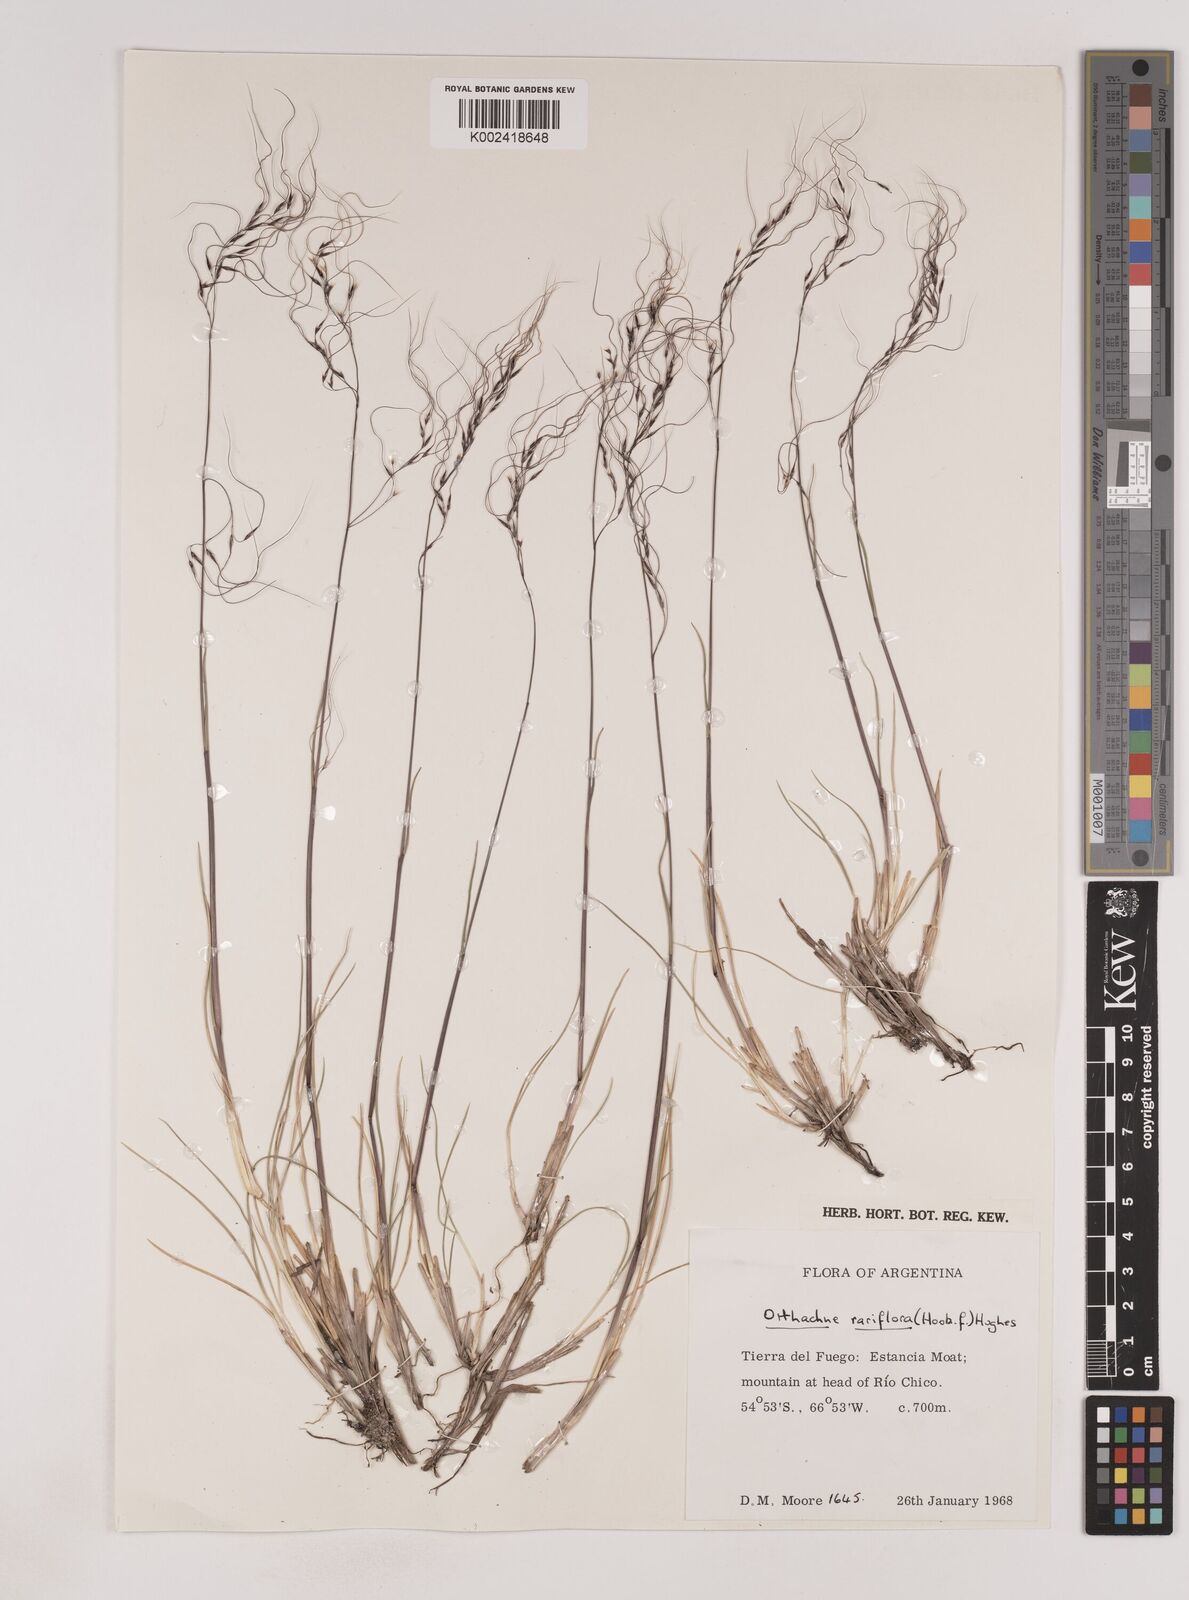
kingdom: Plantae
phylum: Tracheophyta
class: Liliopsida
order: Poales
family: Poaceae
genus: Ortachne
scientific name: Ortachne rariflora
